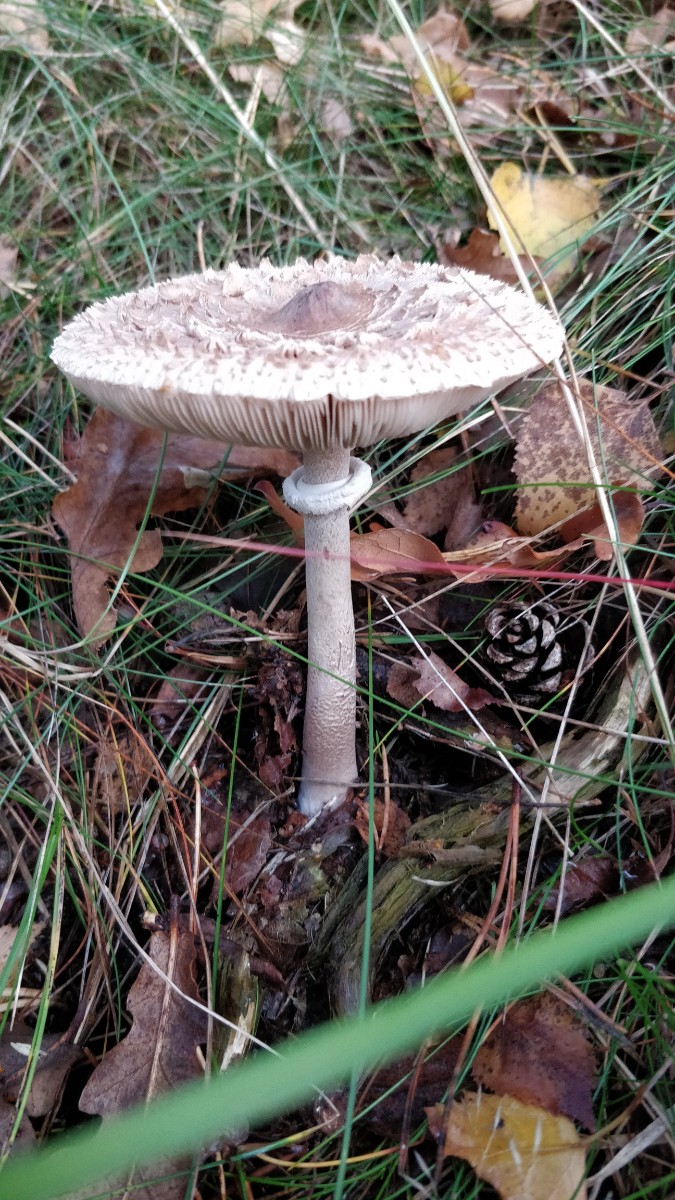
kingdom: Fungi
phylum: Basidiomycota
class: Agaricomycetes
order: Agaricales
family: Agaricaceae
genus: Macrolepiota
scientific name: Macrolepiota procera
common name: stor kæmpeparasolhat
